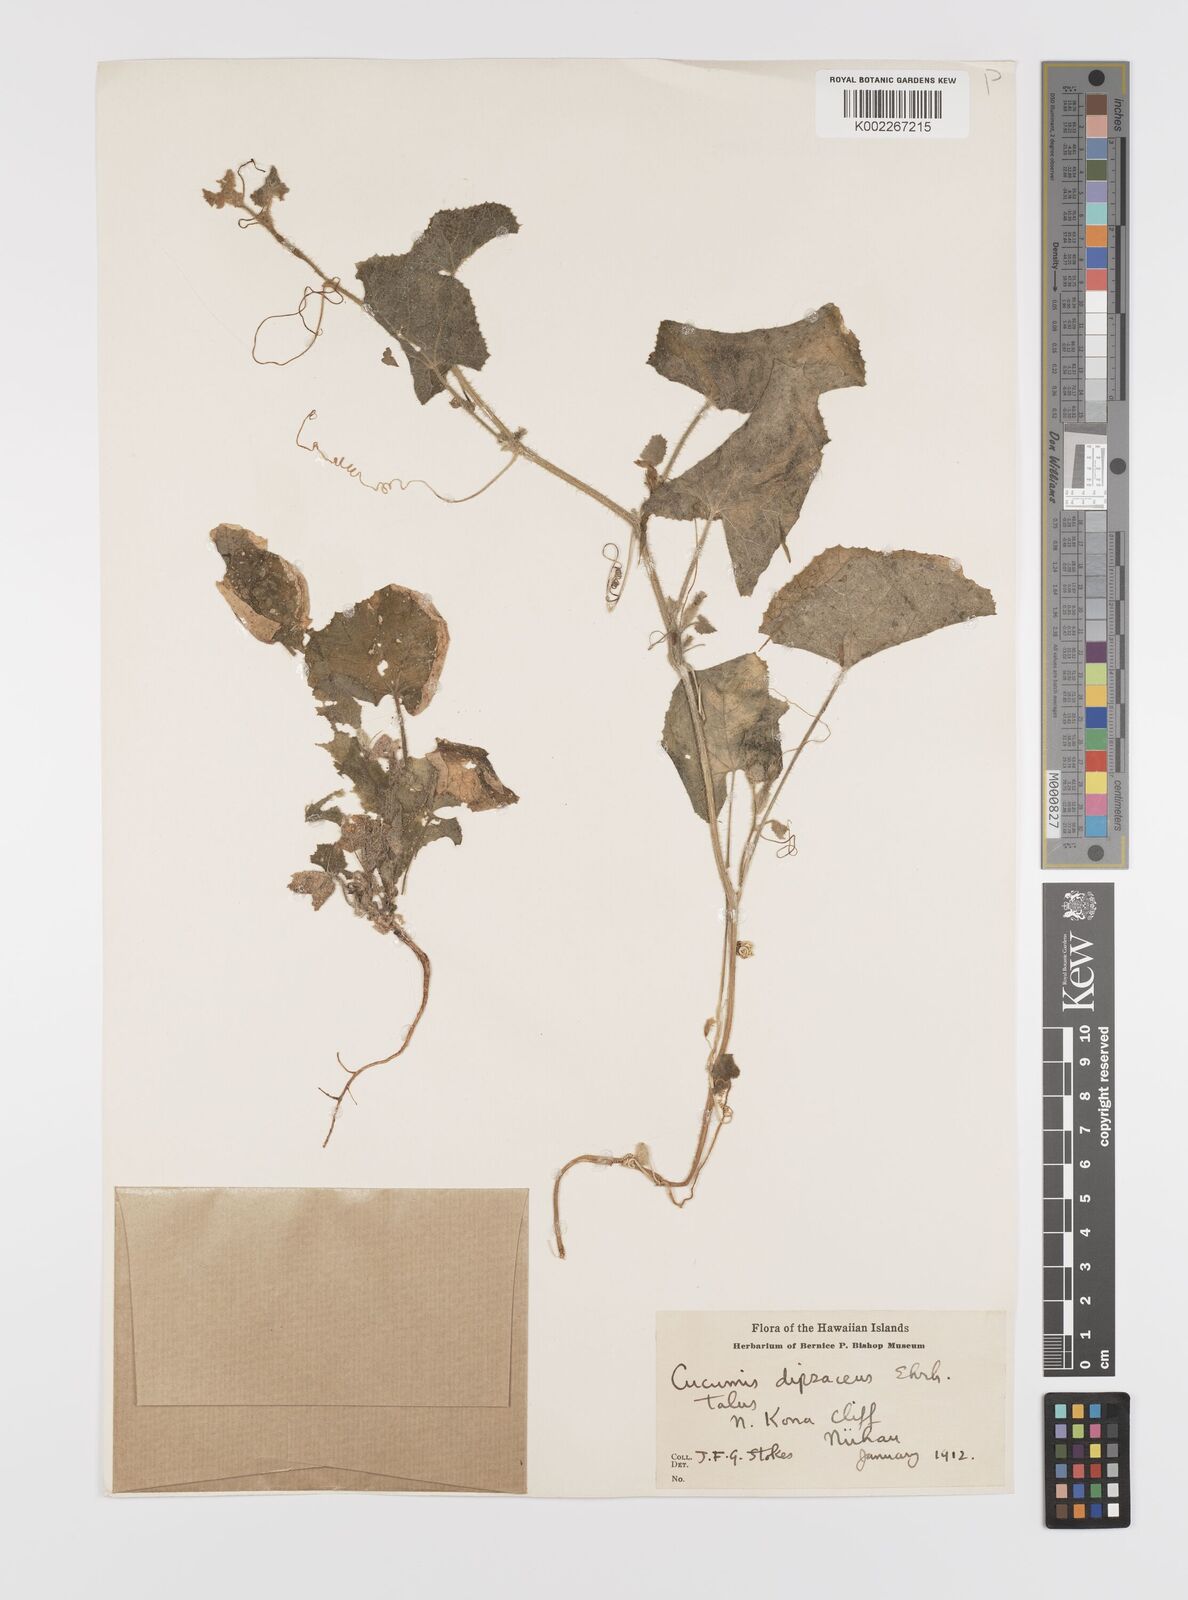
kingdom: Plantae
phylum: Tracheophyta
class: Magnoliopsida
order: Cucurbitales
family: Cucurbitaceae
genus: Cucumis
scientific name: Cucumis dipsaceus
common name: Hedgehog gourd
